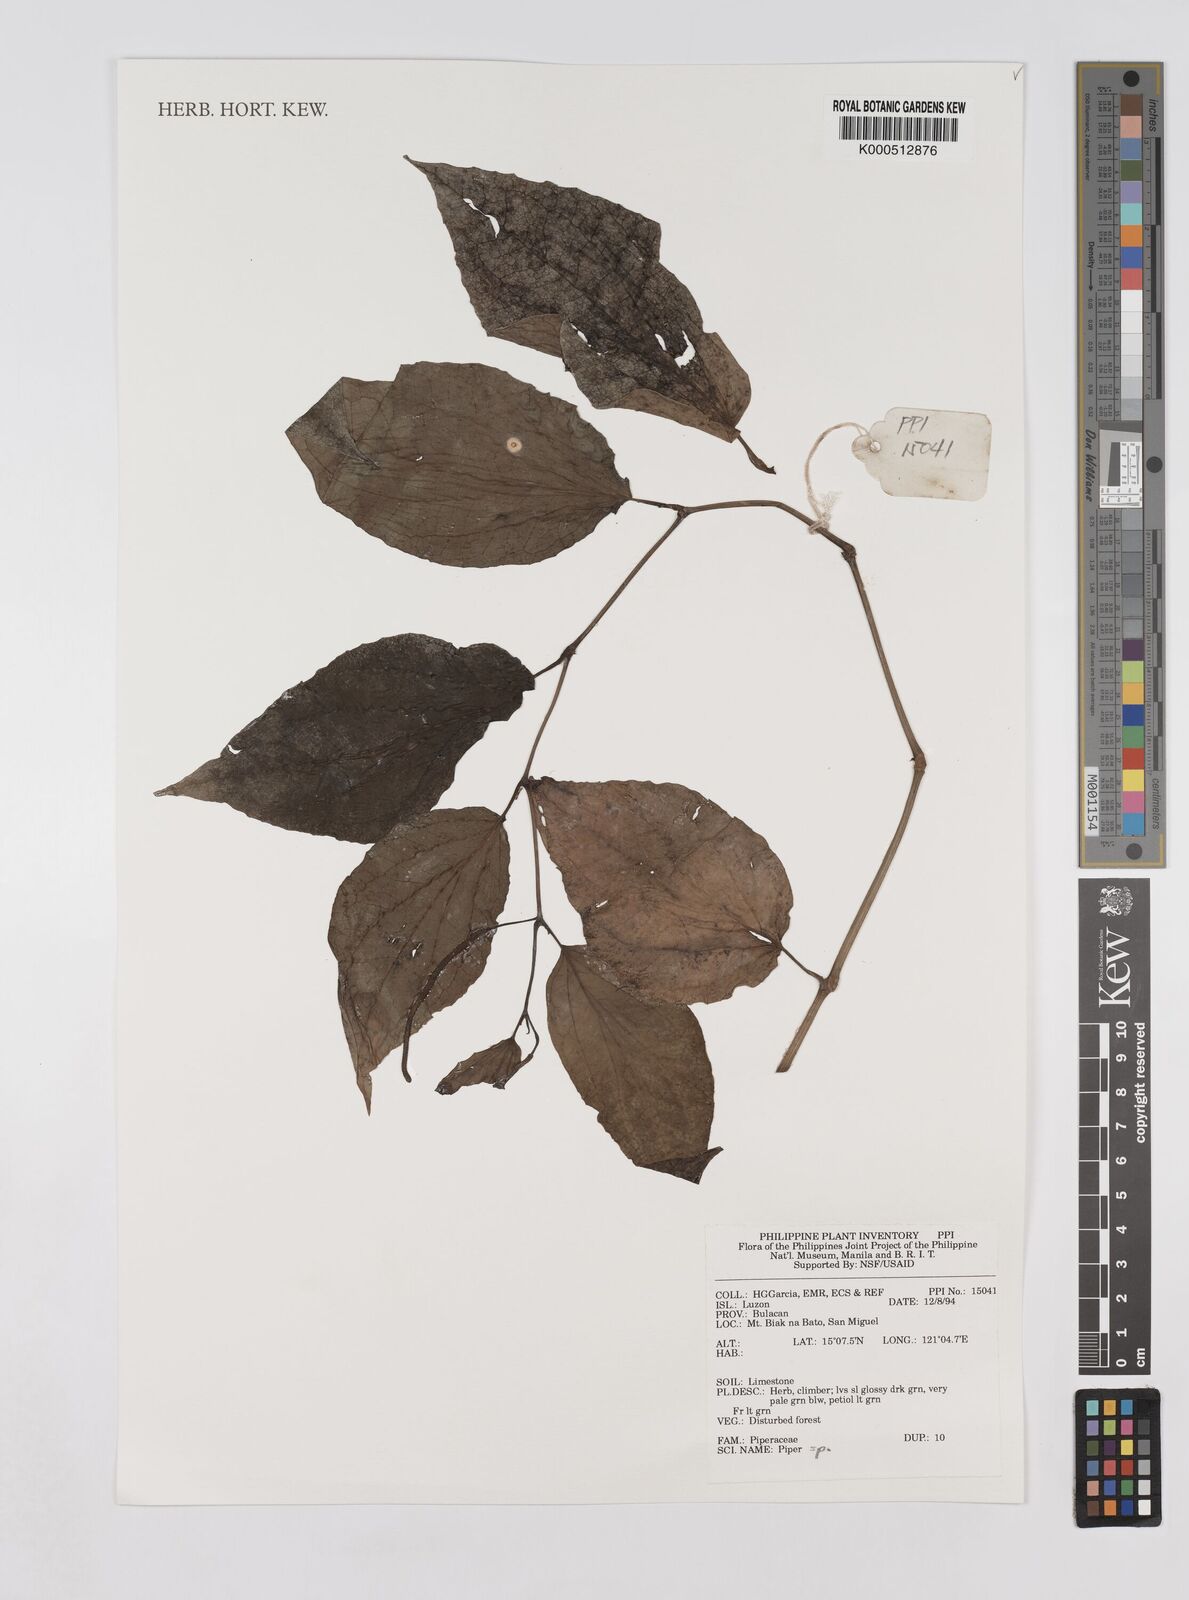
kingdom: Plantae
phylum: Tracheophyta
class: Magnoliopsida
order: Piperales
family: Piperaceae
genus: Piper
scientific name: Piper
